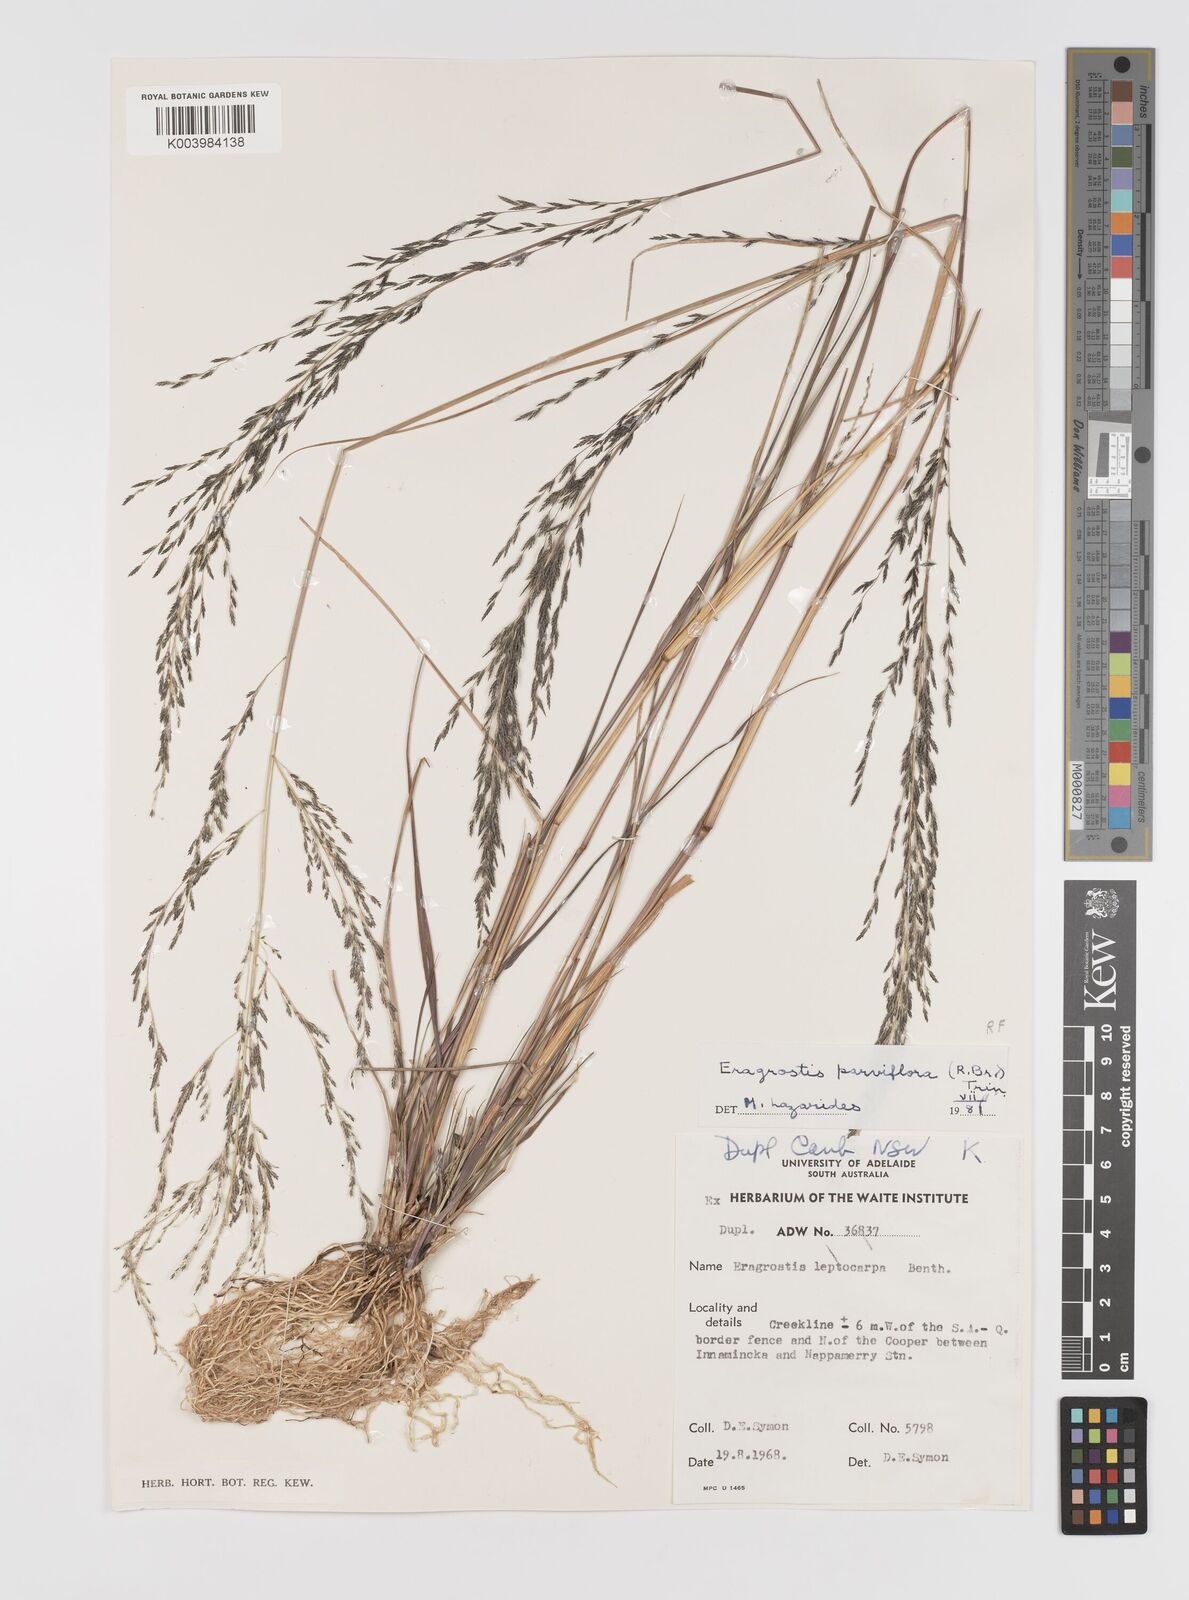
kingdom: Plantae
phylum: Tracheophyta
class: Liliopsida
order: Poales
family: Poaceae
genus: Eragrostis
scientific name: Eragrostis parviflora
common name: Weeping love-grass
